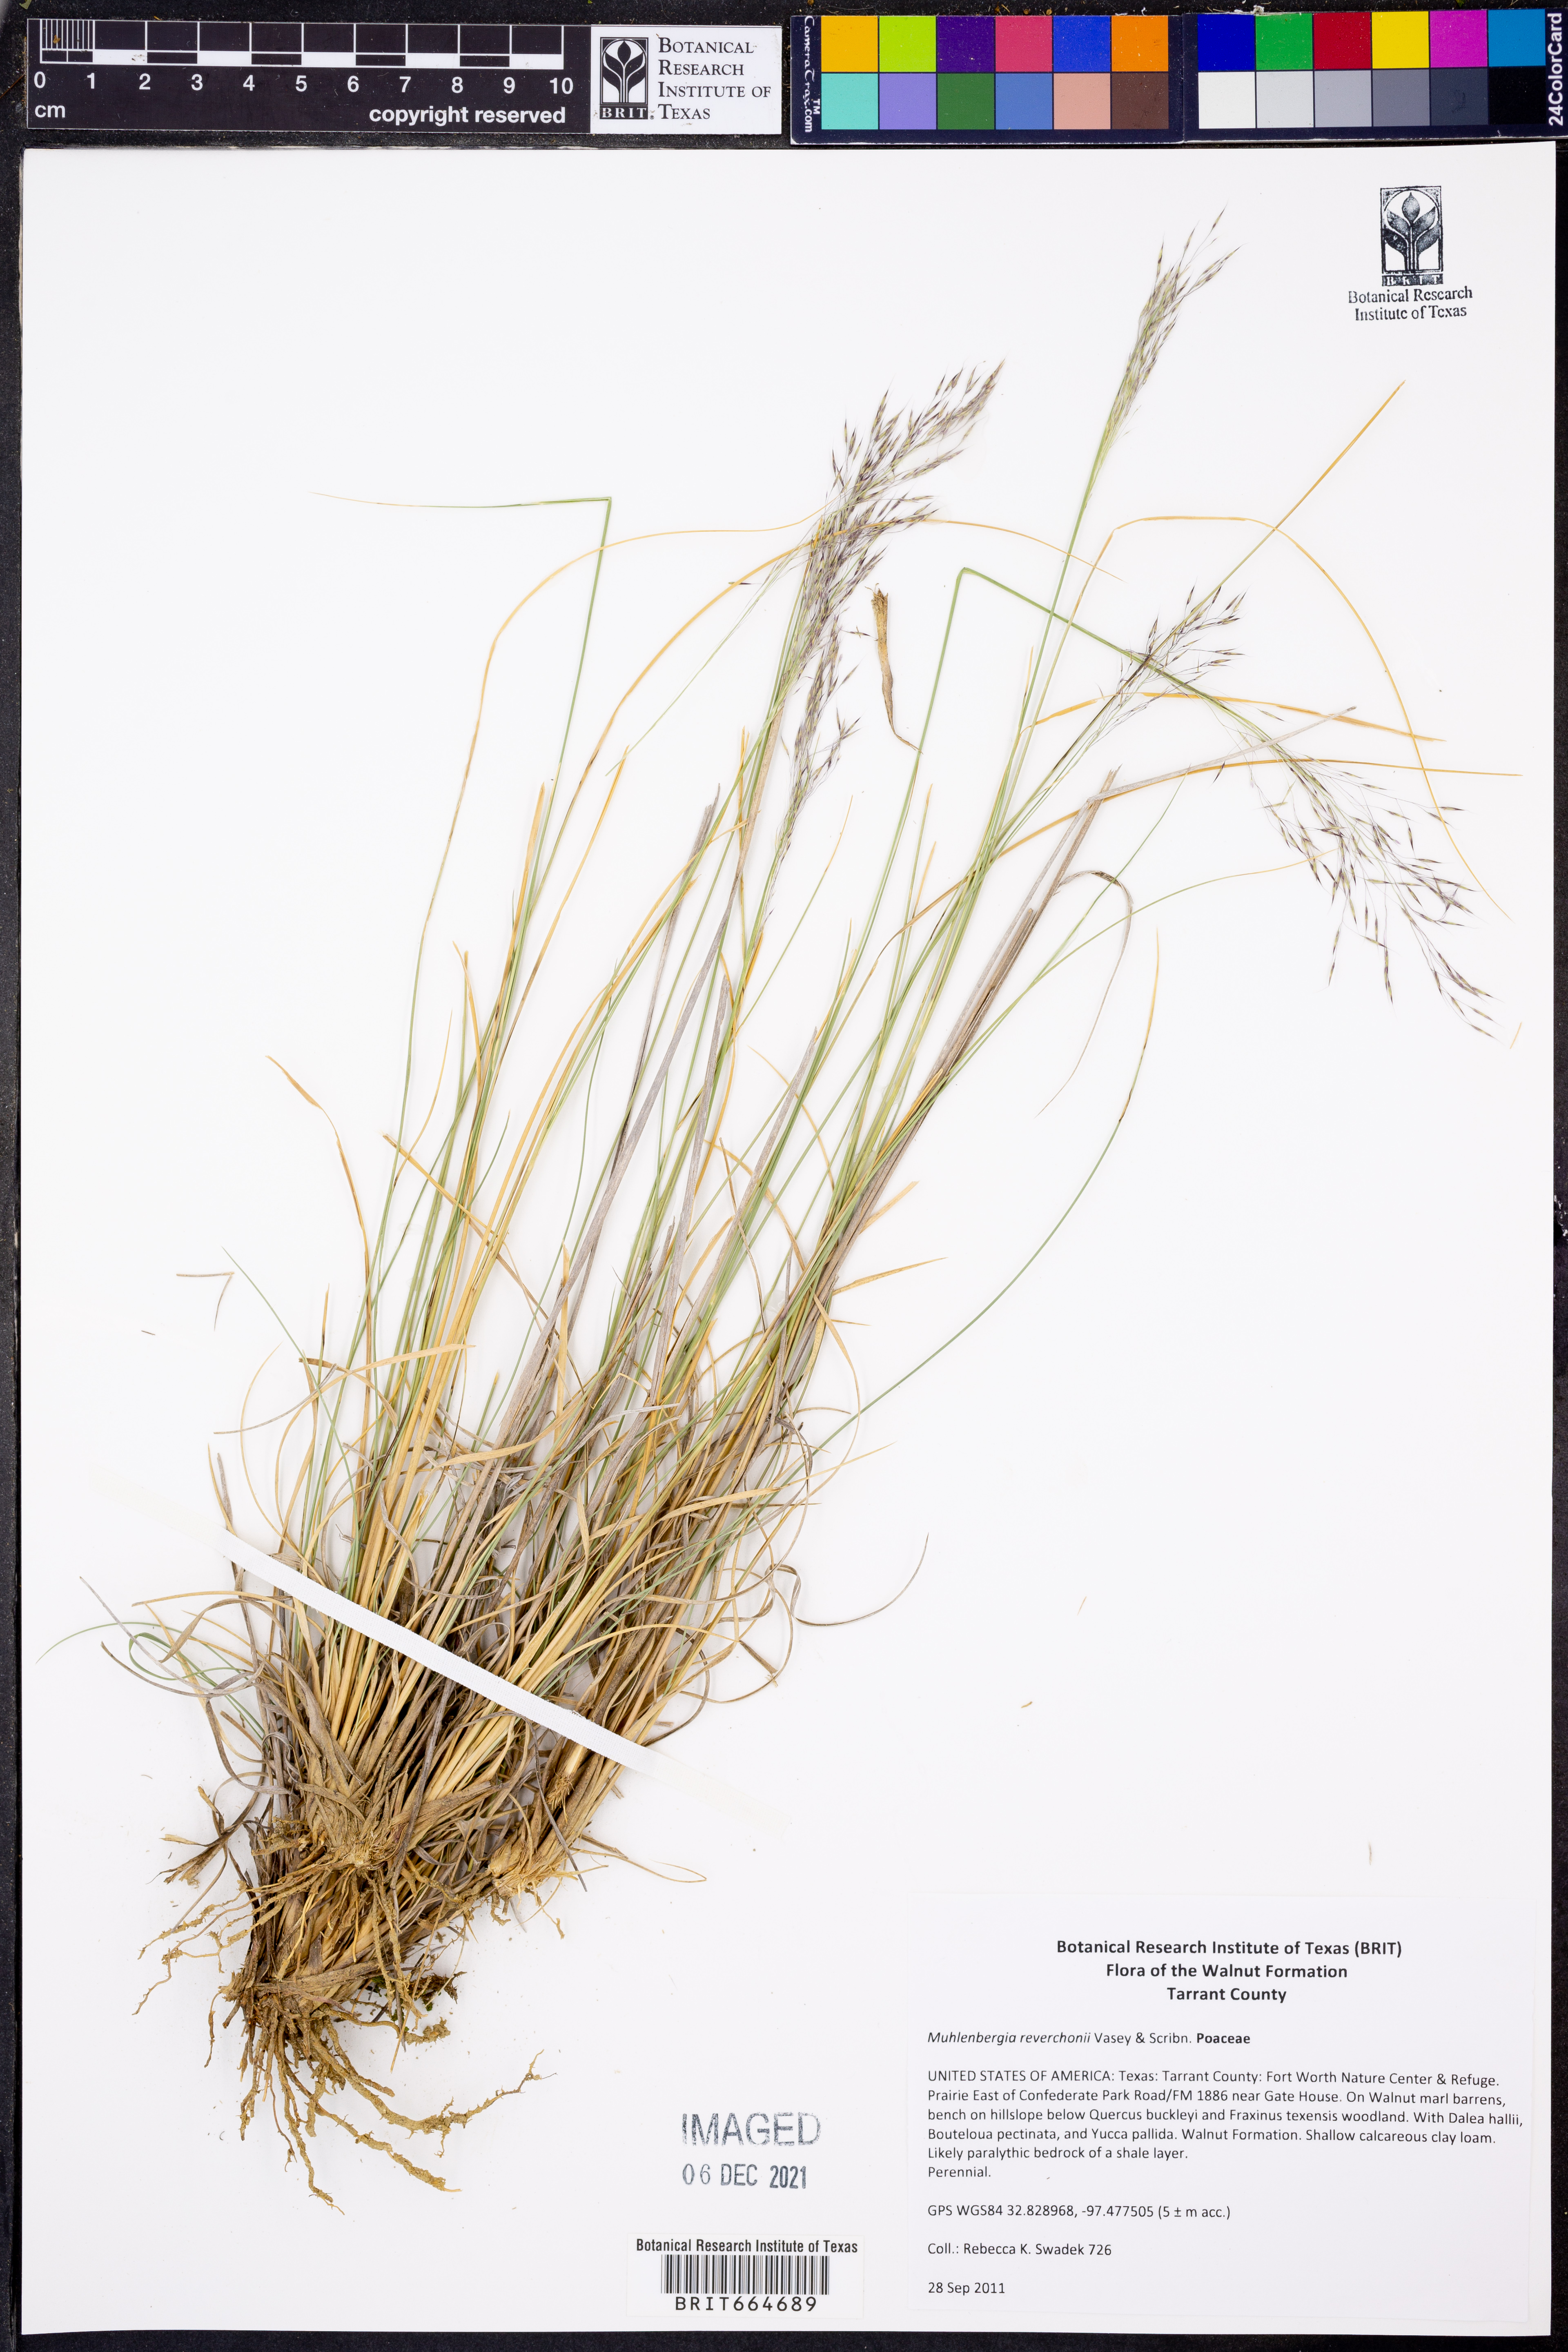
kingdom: Plantae
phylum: Tracheophyta
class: Liliopsida
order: Poales
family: Poaceae
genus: Muhlenbergia
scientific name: Muhlenbergia reverchonii
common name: Seep muhly
